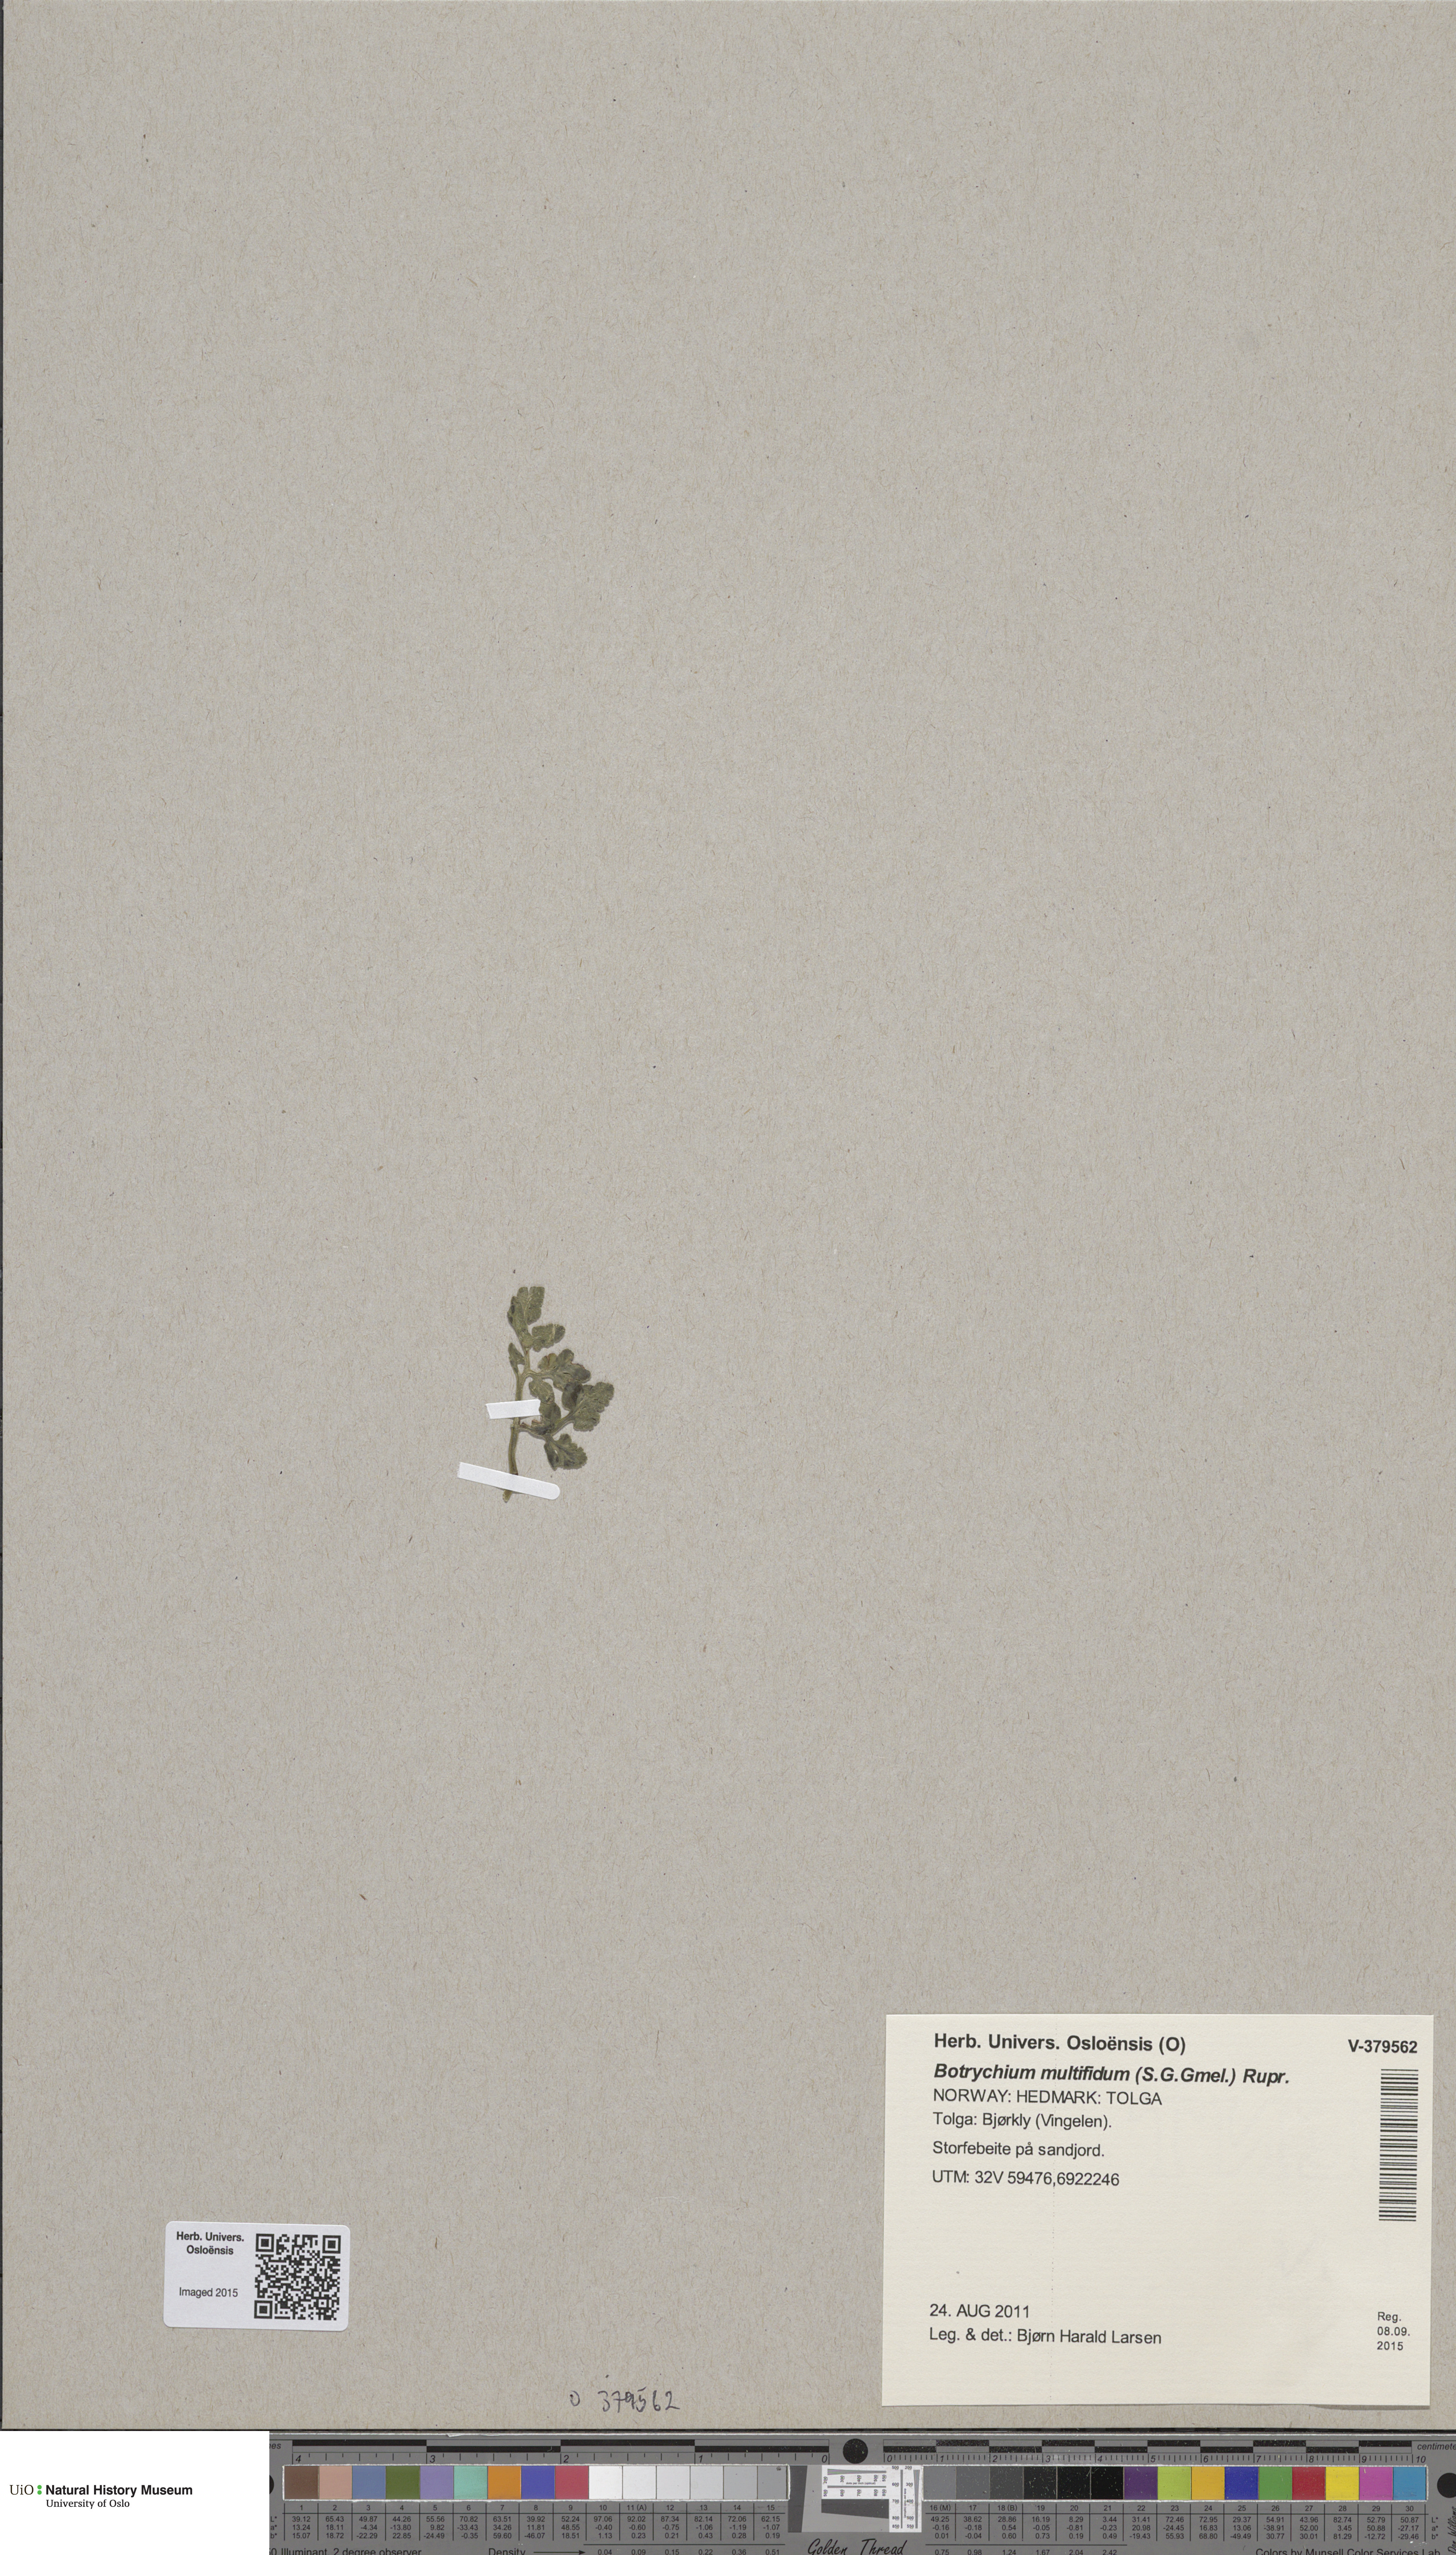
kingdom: Plantae
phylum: Tracheophyta
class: Polypodiopsida
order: Ophioglossales
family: Ophioglossaceae
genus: Sceptridium
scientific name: Sceptridium multifidum
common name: Leathery grape fern
